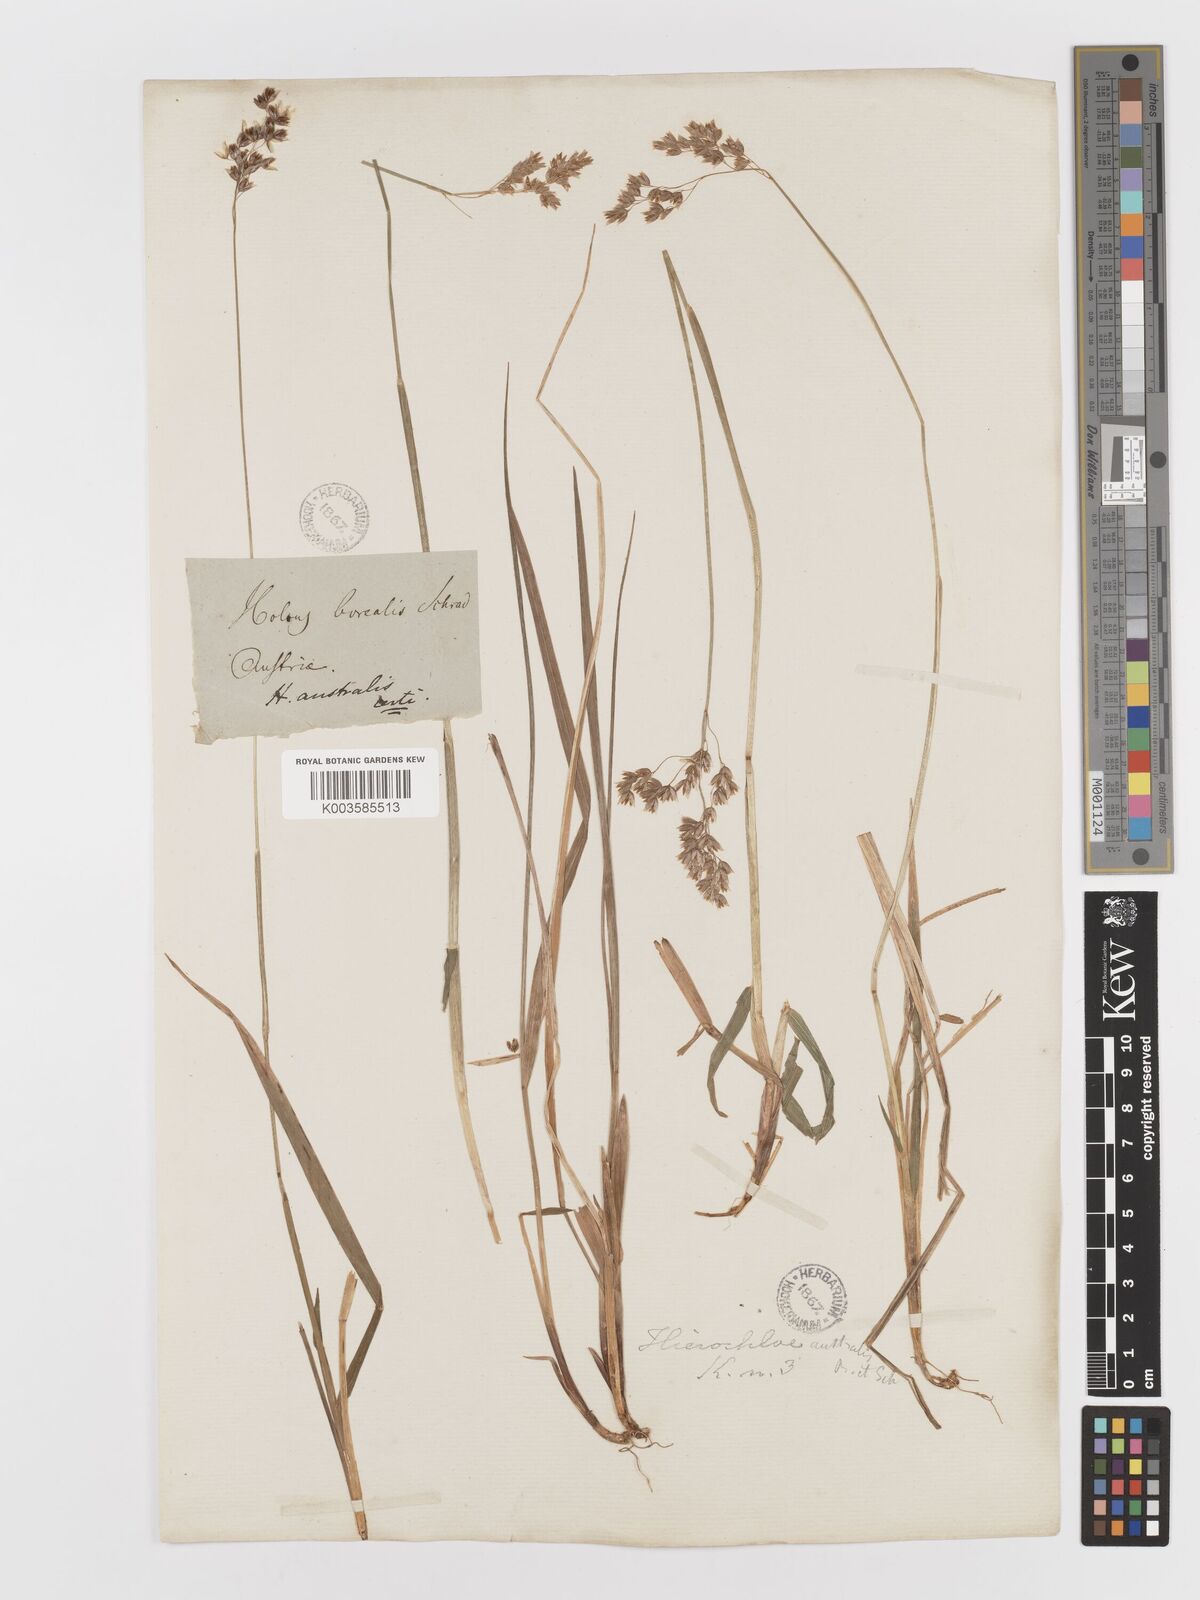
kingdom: Plantae
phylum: Tracheophyta
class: Liliopsida
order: Poales
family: Poaceae
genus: Anthoxanthum
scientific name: Anthoxanthum australe
